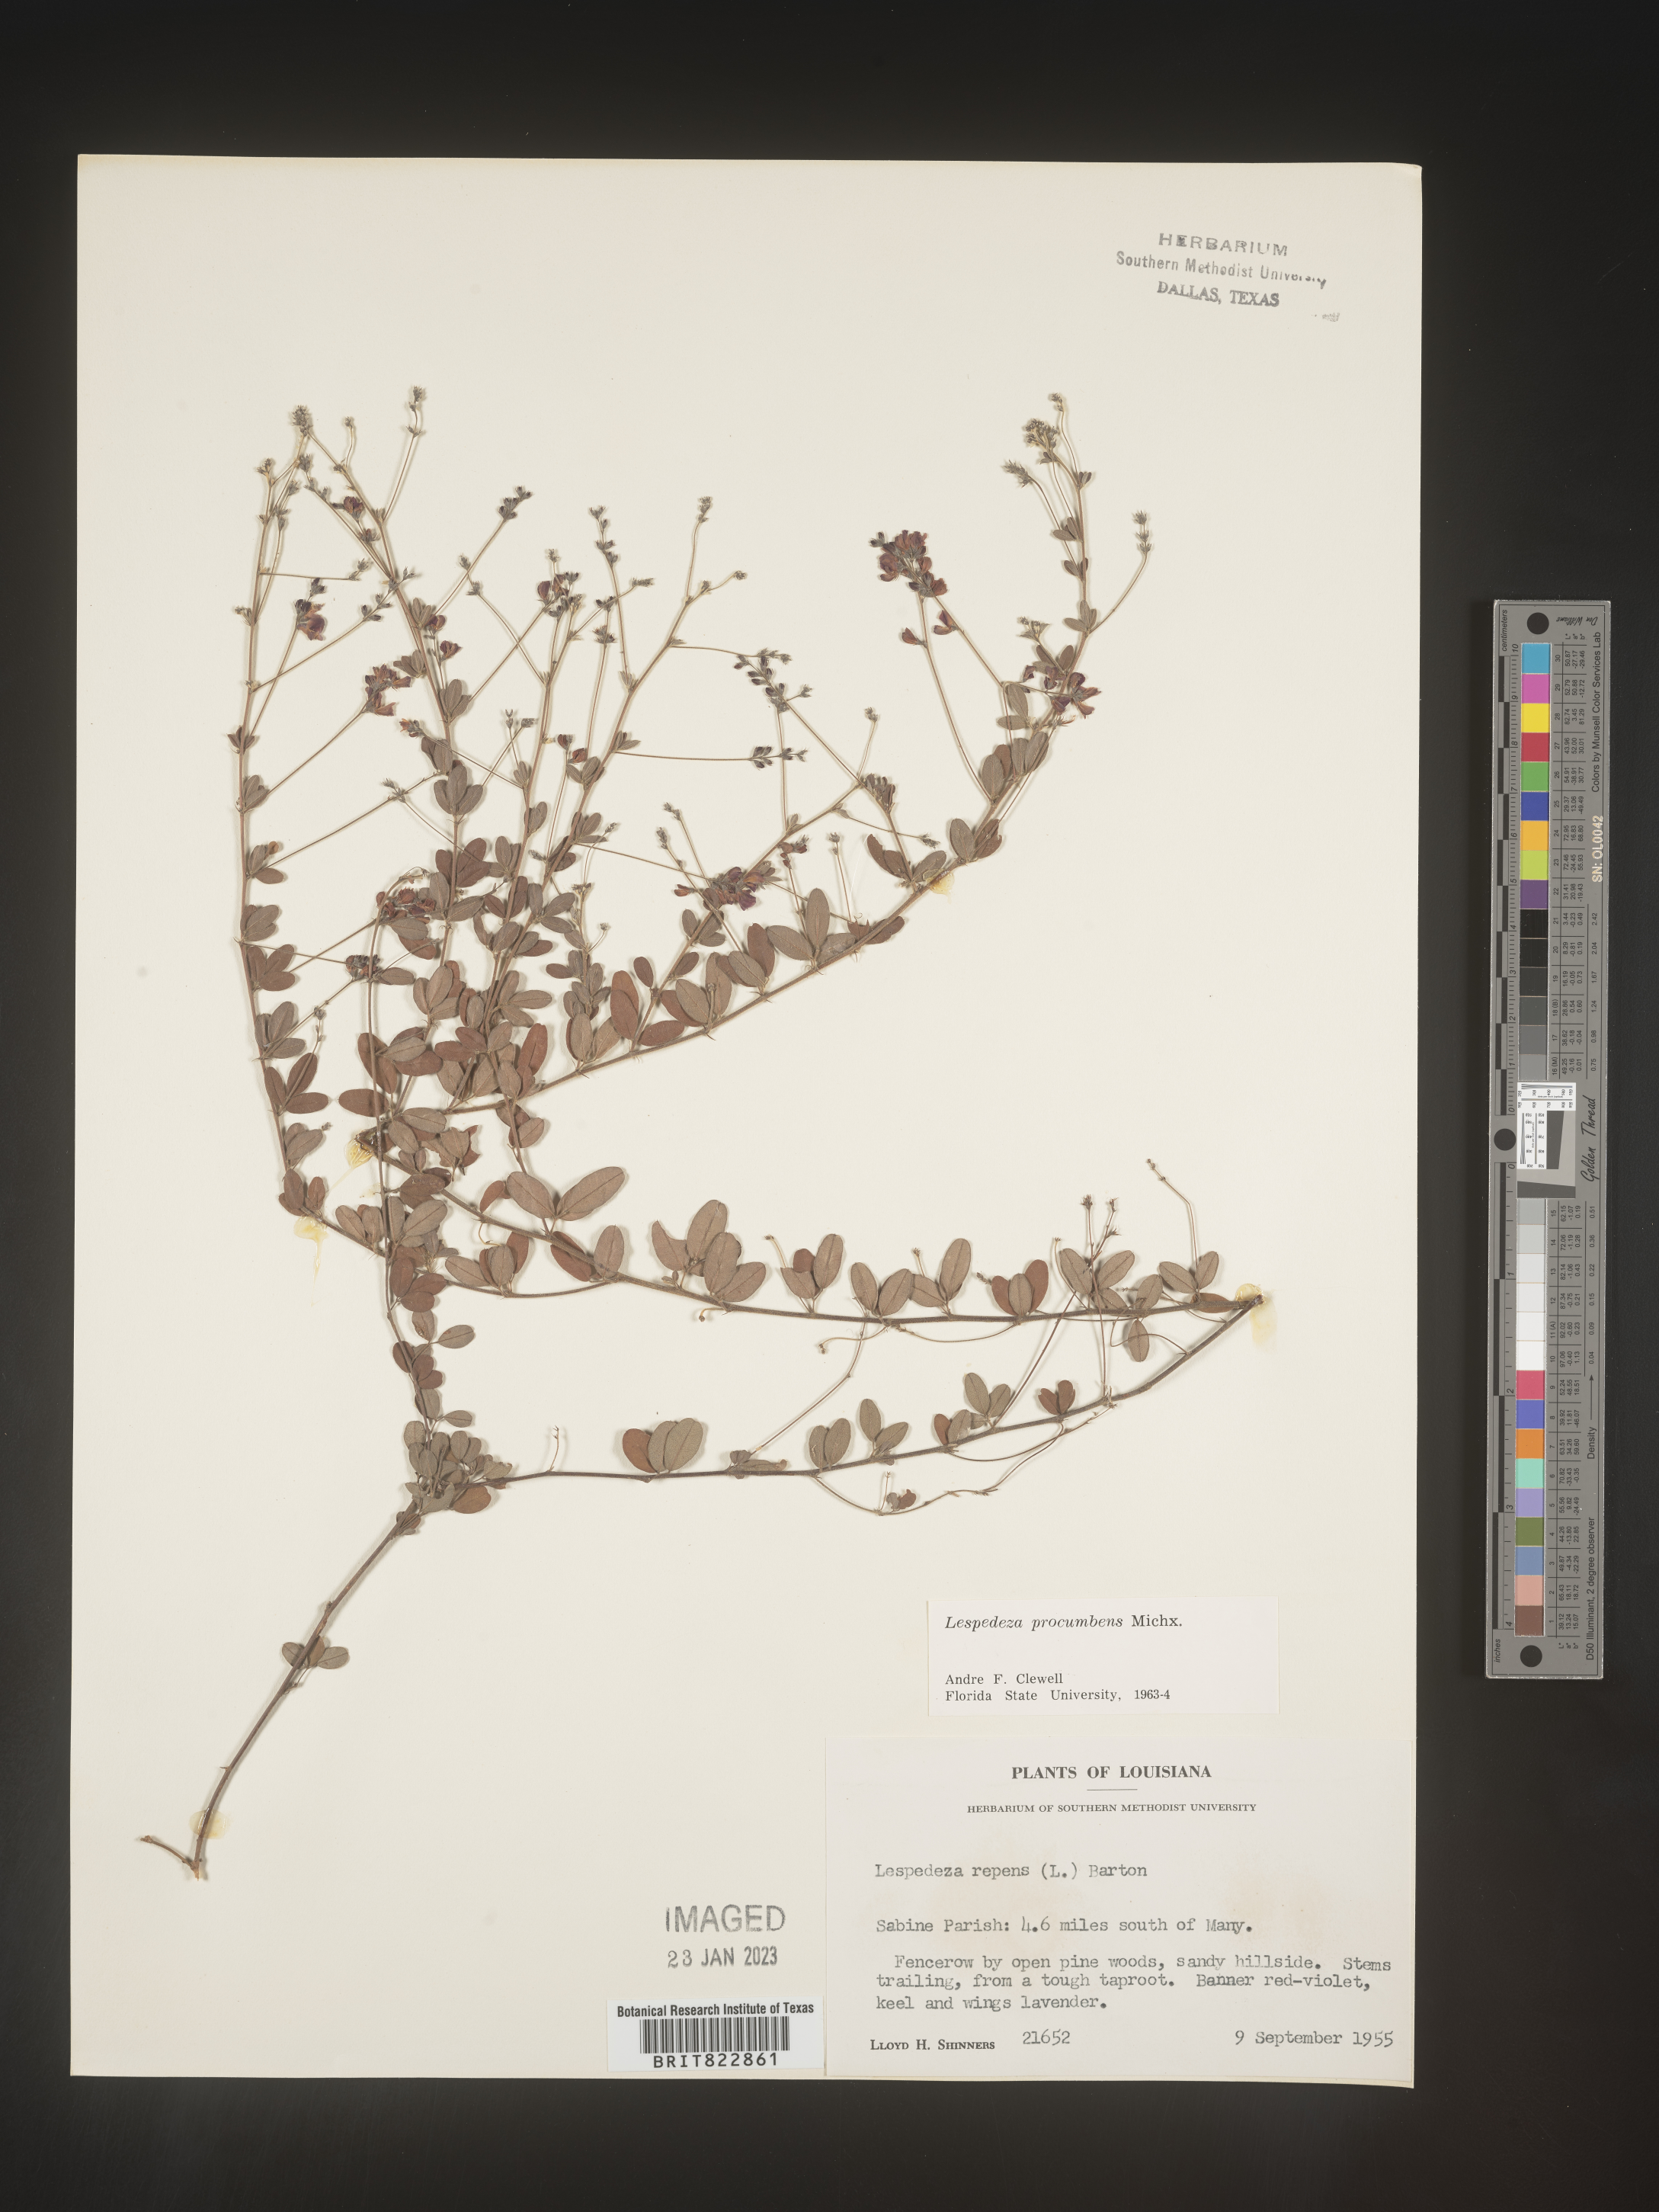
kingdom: Plantae
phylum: Tracheophyta
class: Magnoliopsida
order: Fabales
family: Fabaceae
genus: Lespedeza
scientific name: Lespedeza procumbens
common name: Downy trailing bush-clover
